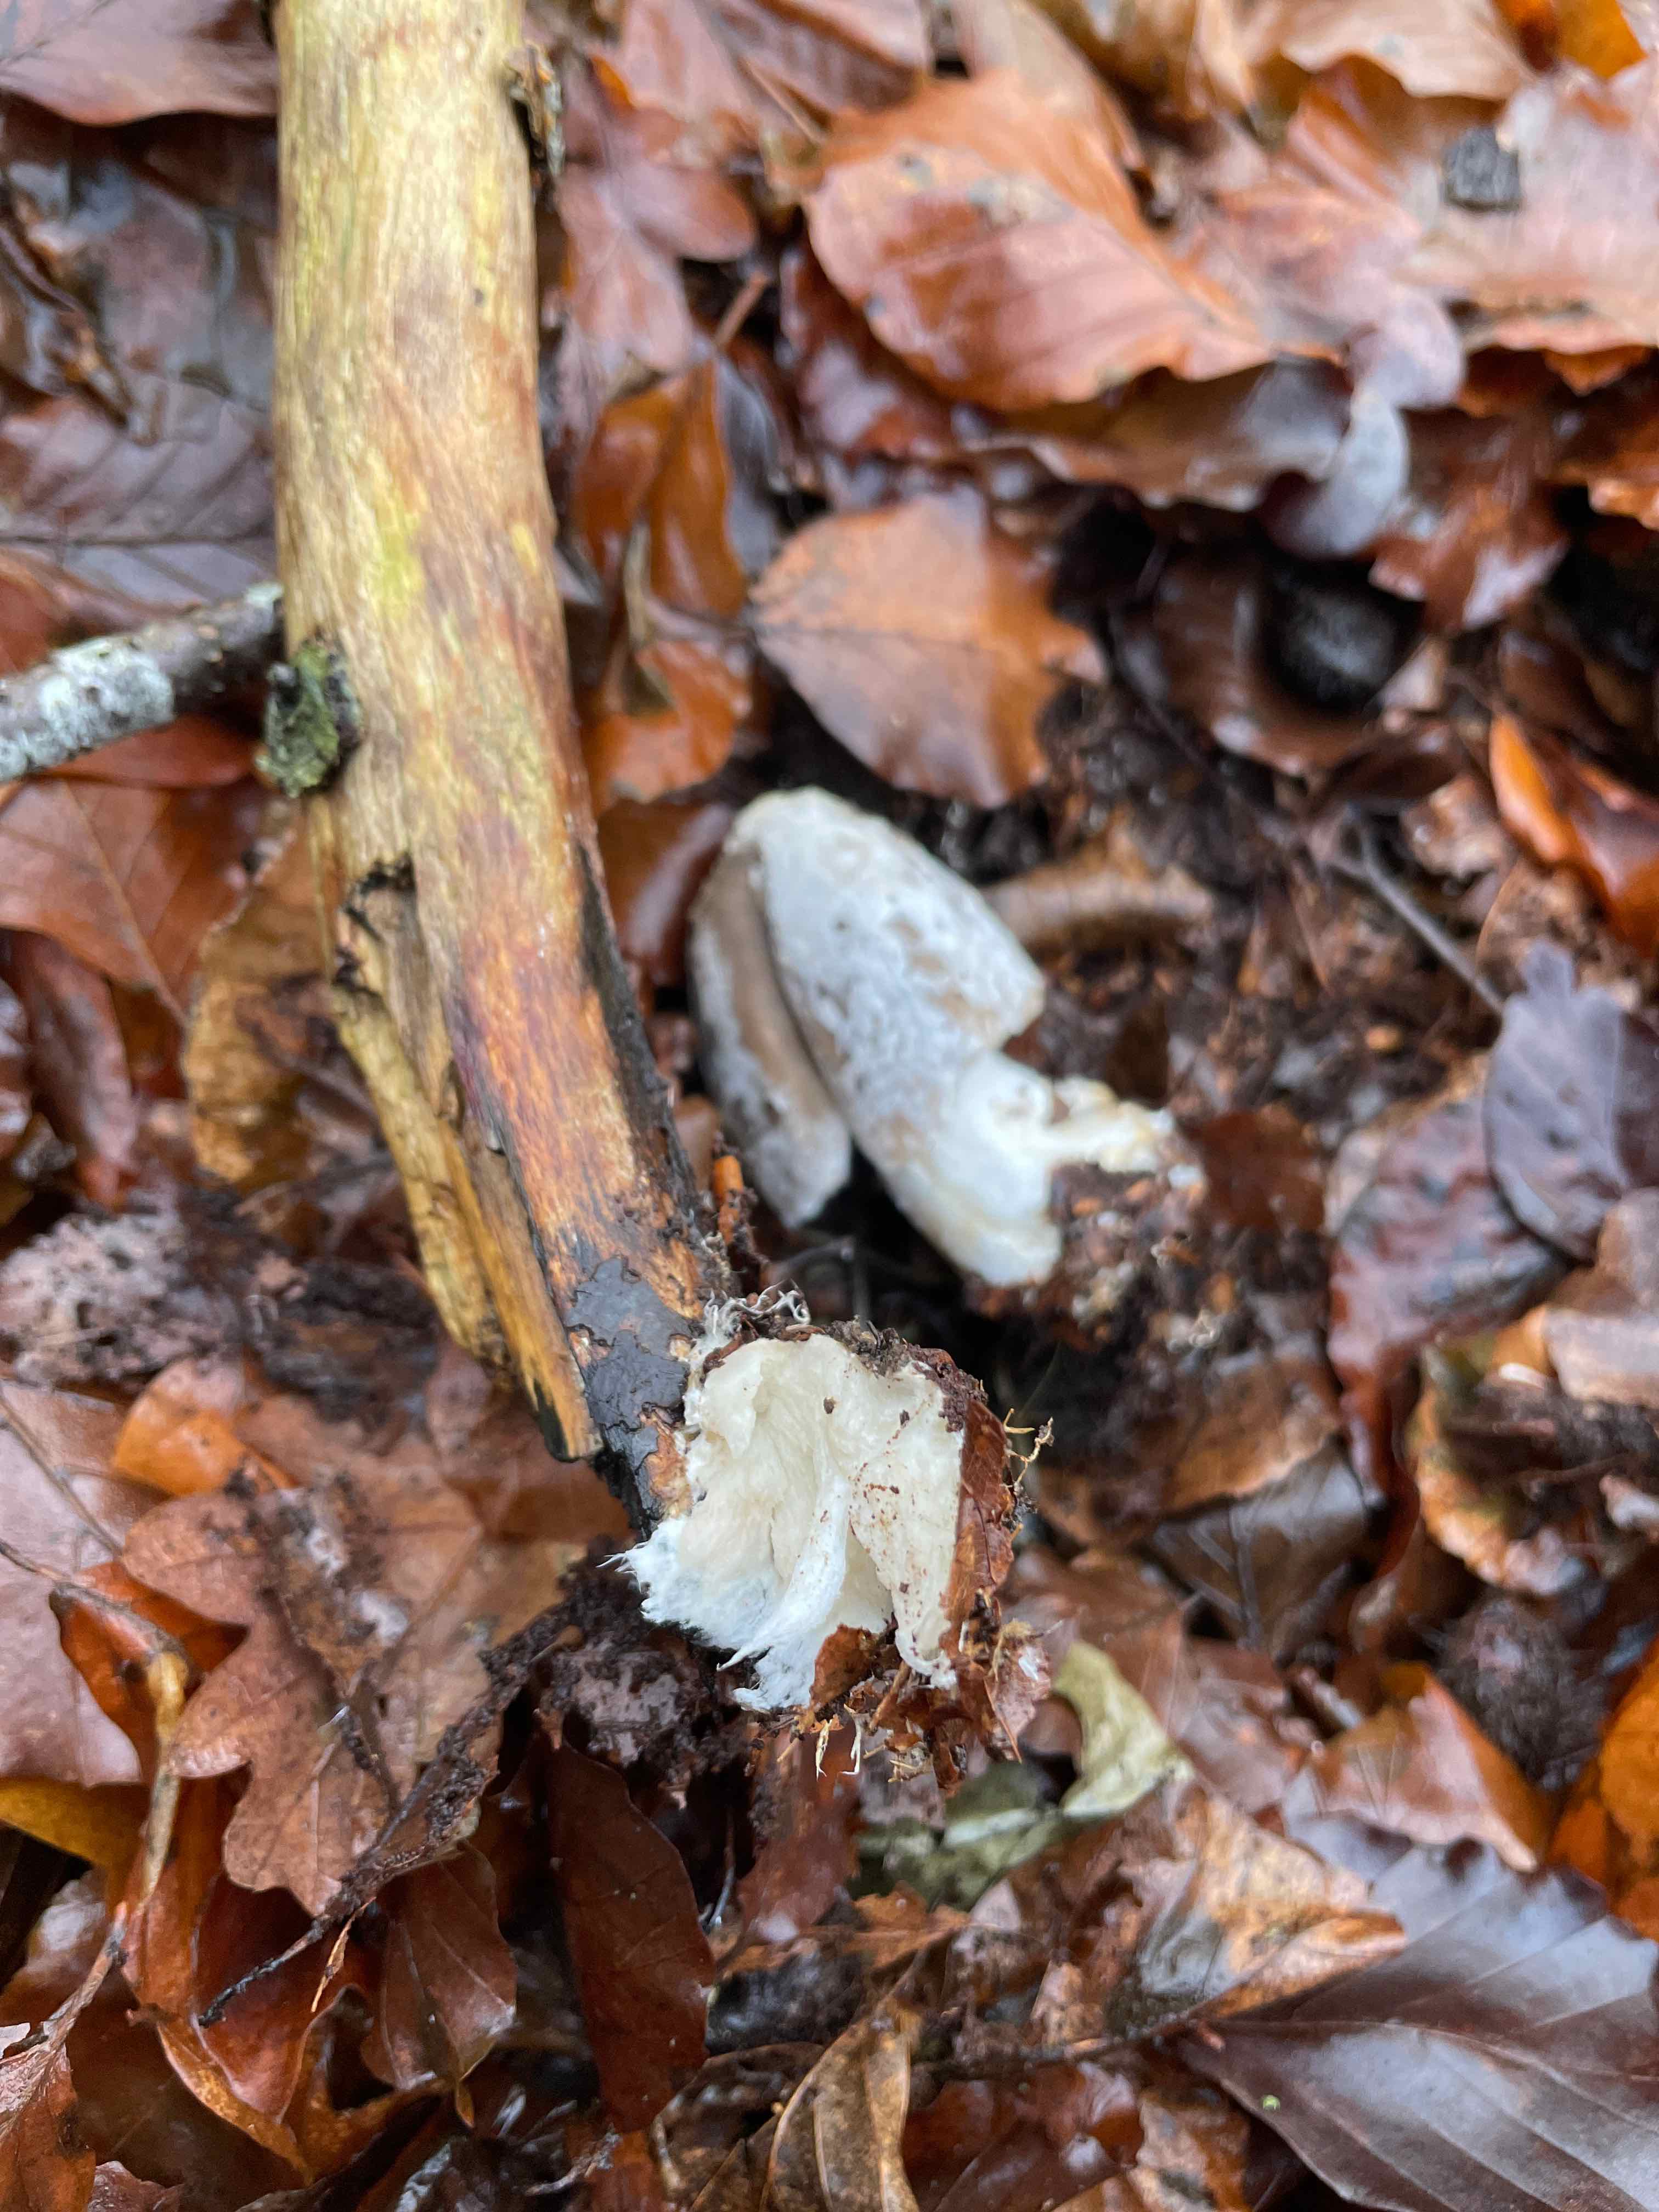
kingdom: Fungi
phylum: Basidiomycota
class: Agaricomycetes
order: Agaricales
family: Psathyrellaceae
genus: Coprinopsis
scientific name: Coprinopsis picacea
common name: skade-blækhat
